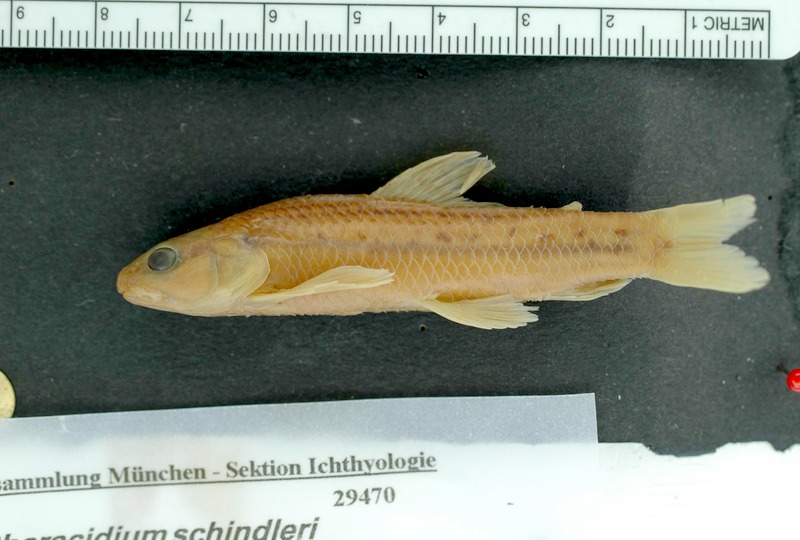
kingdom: Animalia
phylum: Chordata
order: Characiformes
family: Crenuchidae
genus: Characidium
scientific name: Characidium schindleri
